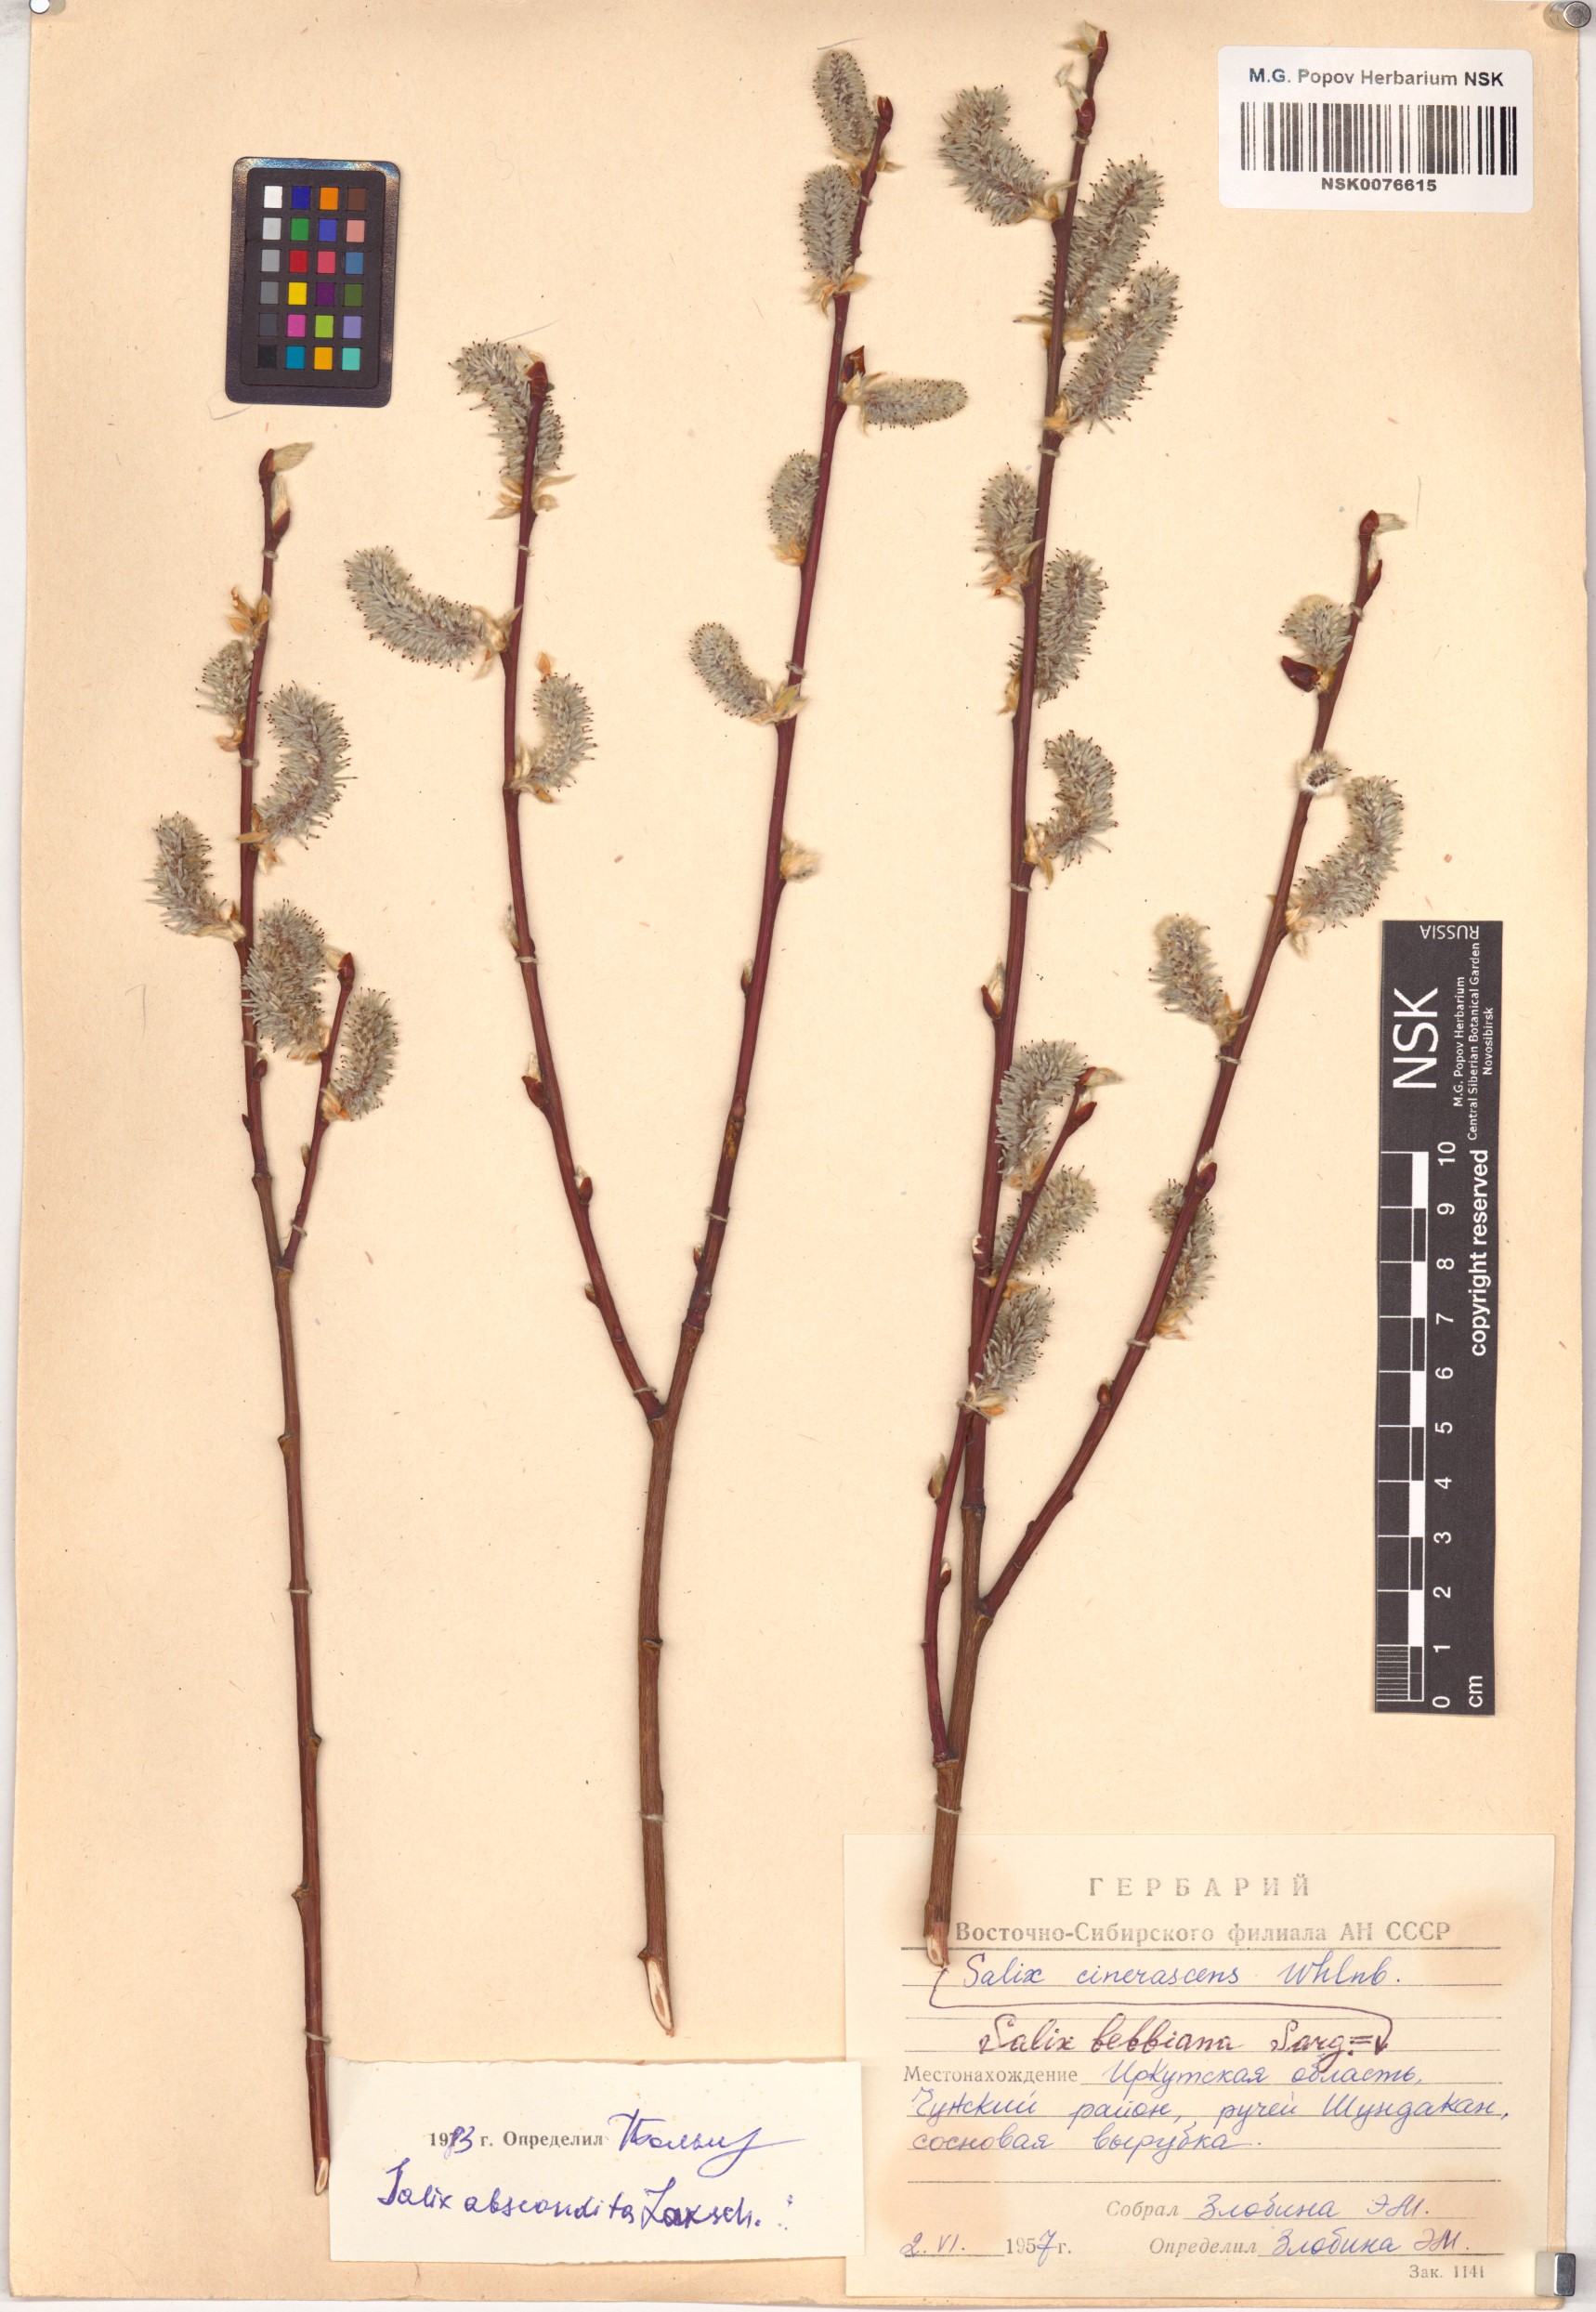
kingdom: Plantae
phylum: Tracheophyta
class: Magnoliopsida
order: Malpighiales
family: Salicaceae
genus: Salix
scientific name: Salix abscondita
